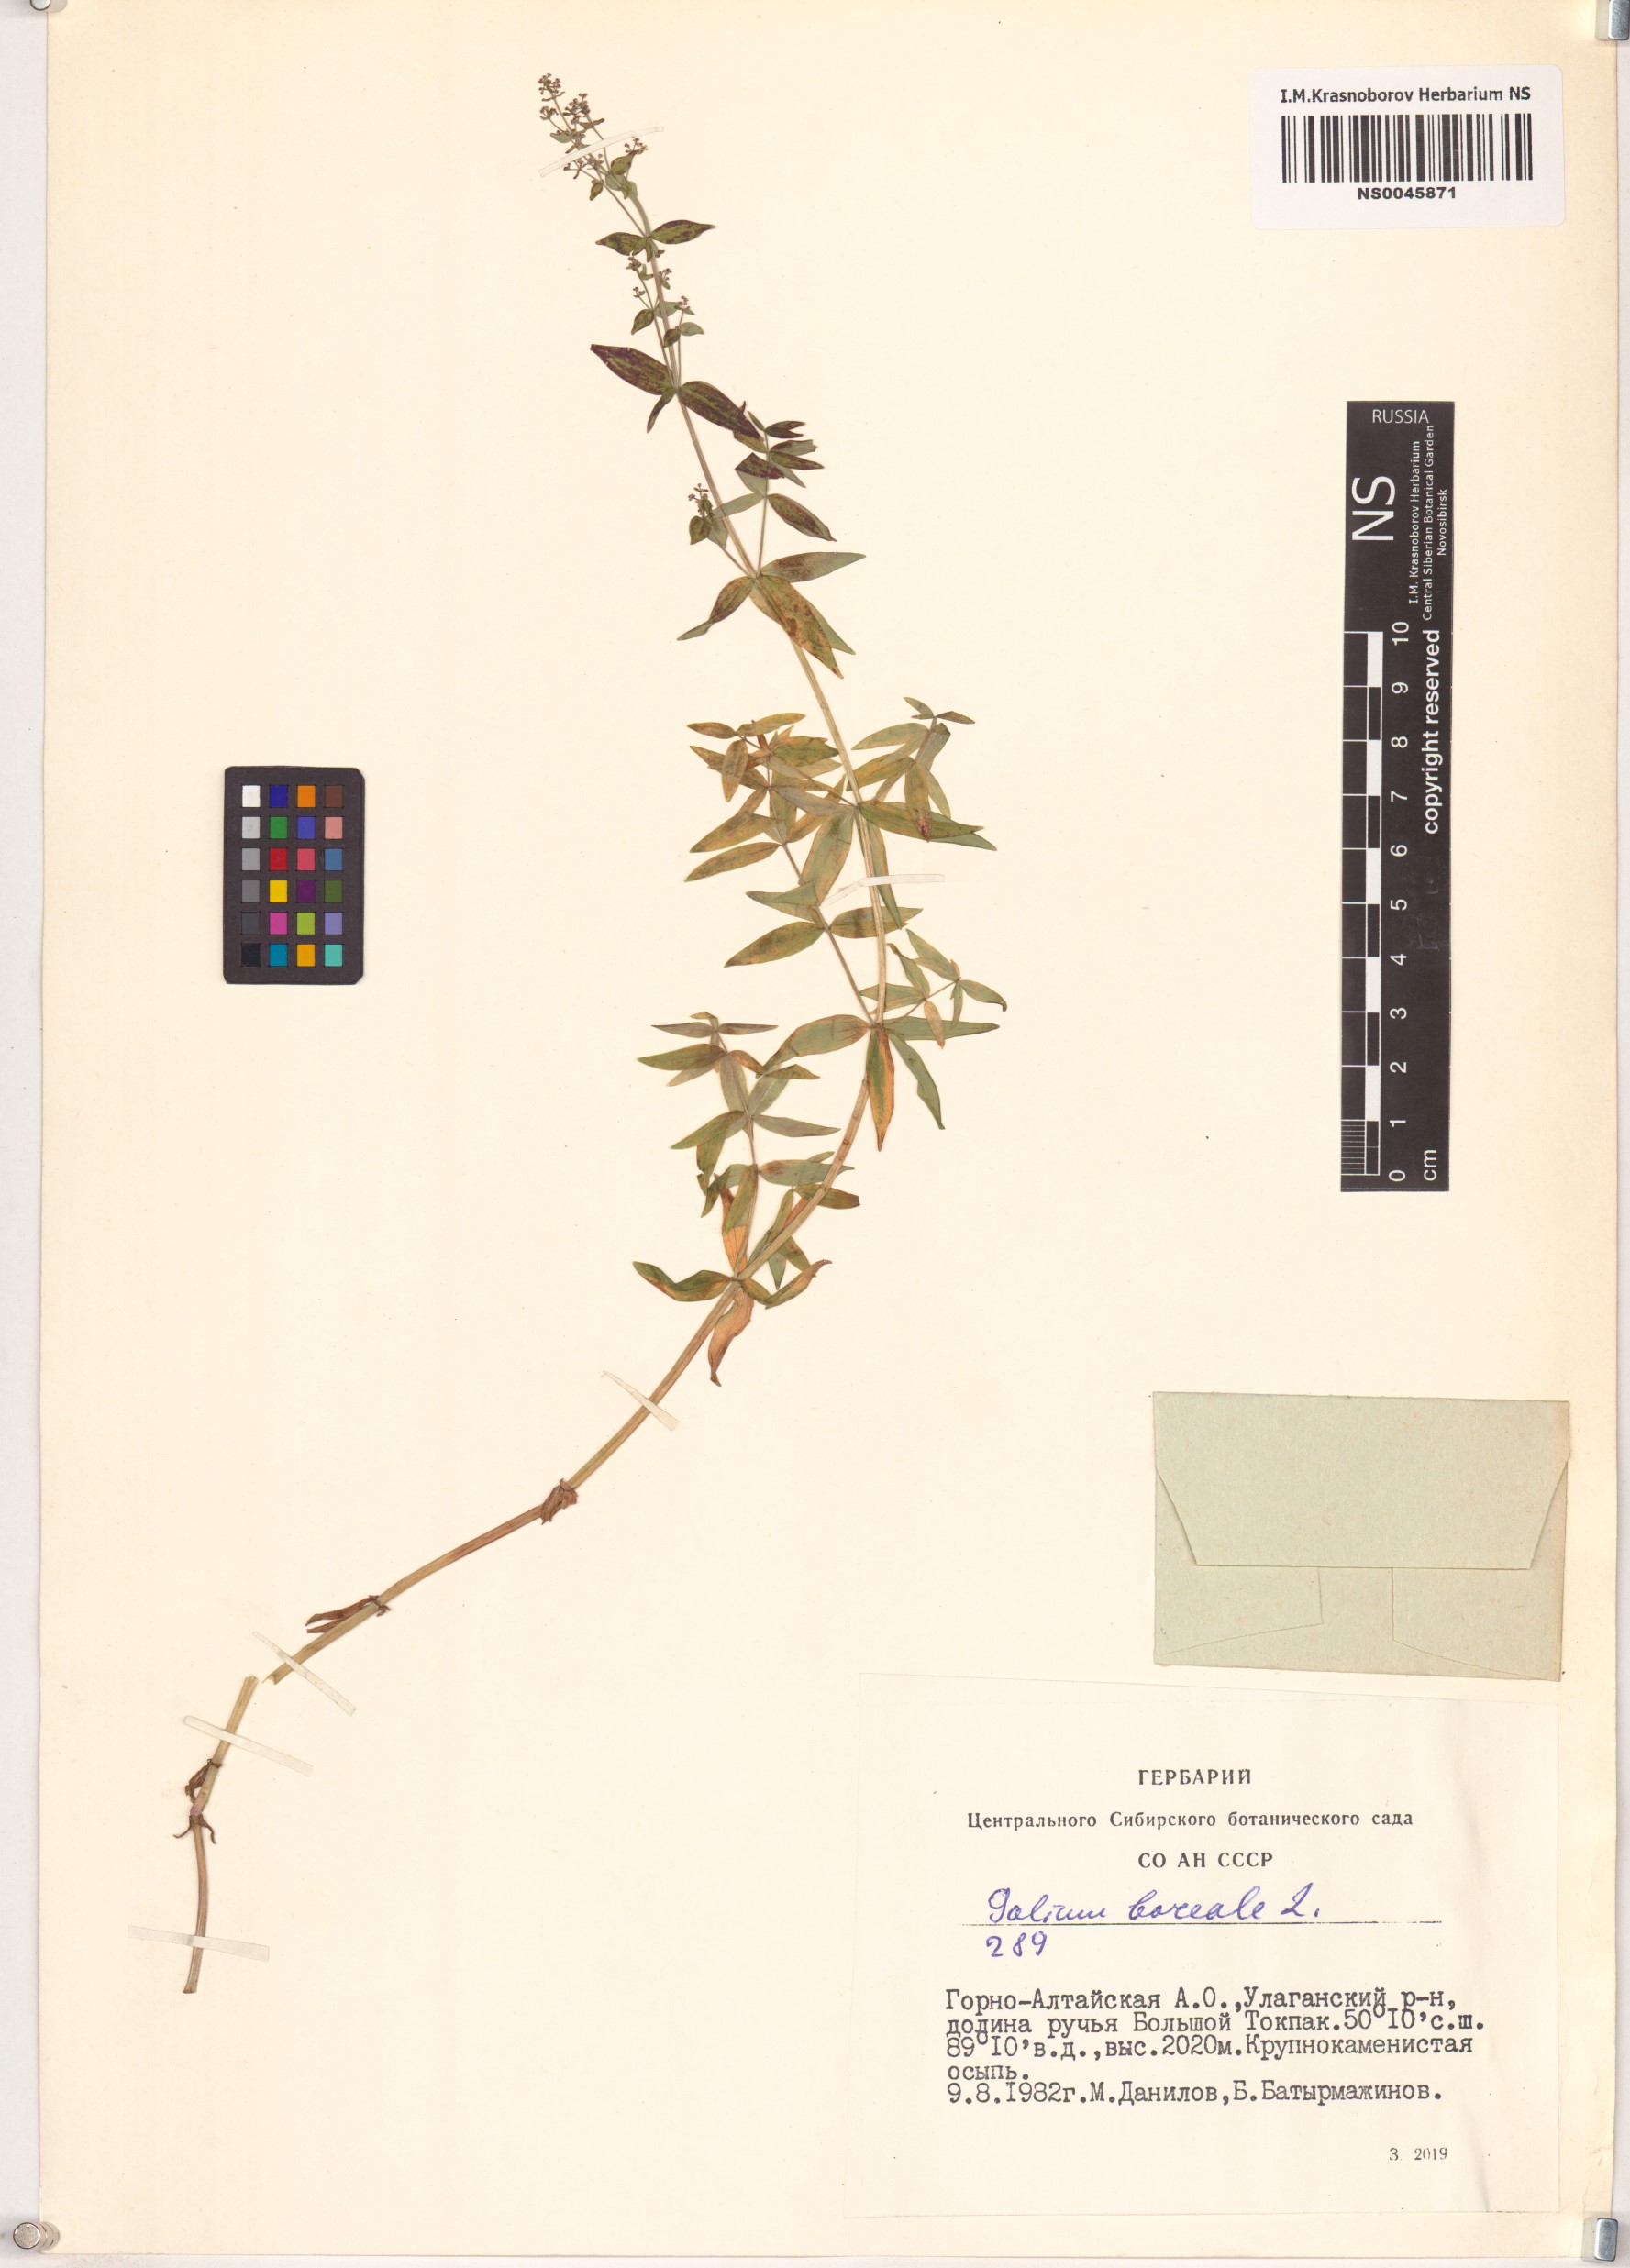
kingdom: Plantae
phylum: Tracheophyta
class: Magnoliopsida
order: Gentianales
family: Rubiaceae
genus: Galium
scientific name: Galium boreale
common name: Northern bedstraw
